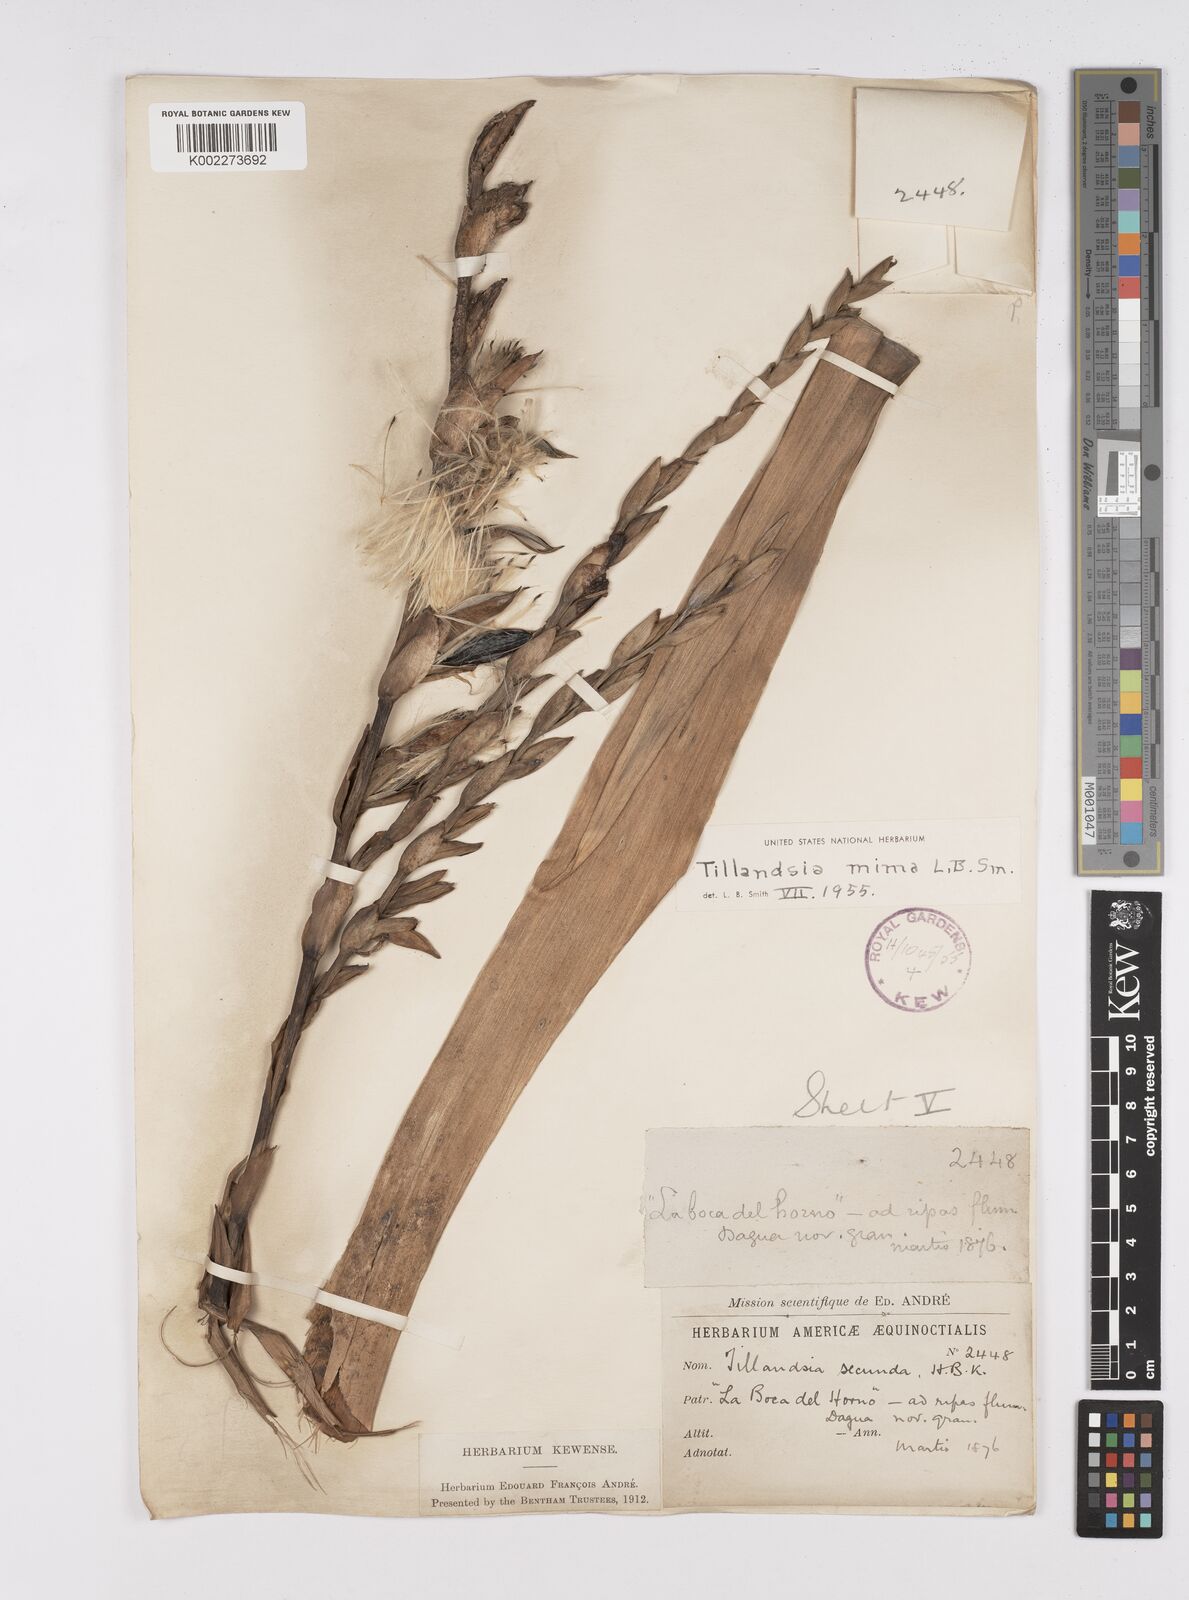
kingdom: Plantae
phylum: Tracheophyta
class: Liliopsida
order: Poales
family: Bromeliaceae
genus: Tillandsia
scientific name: Tillandsia mima
